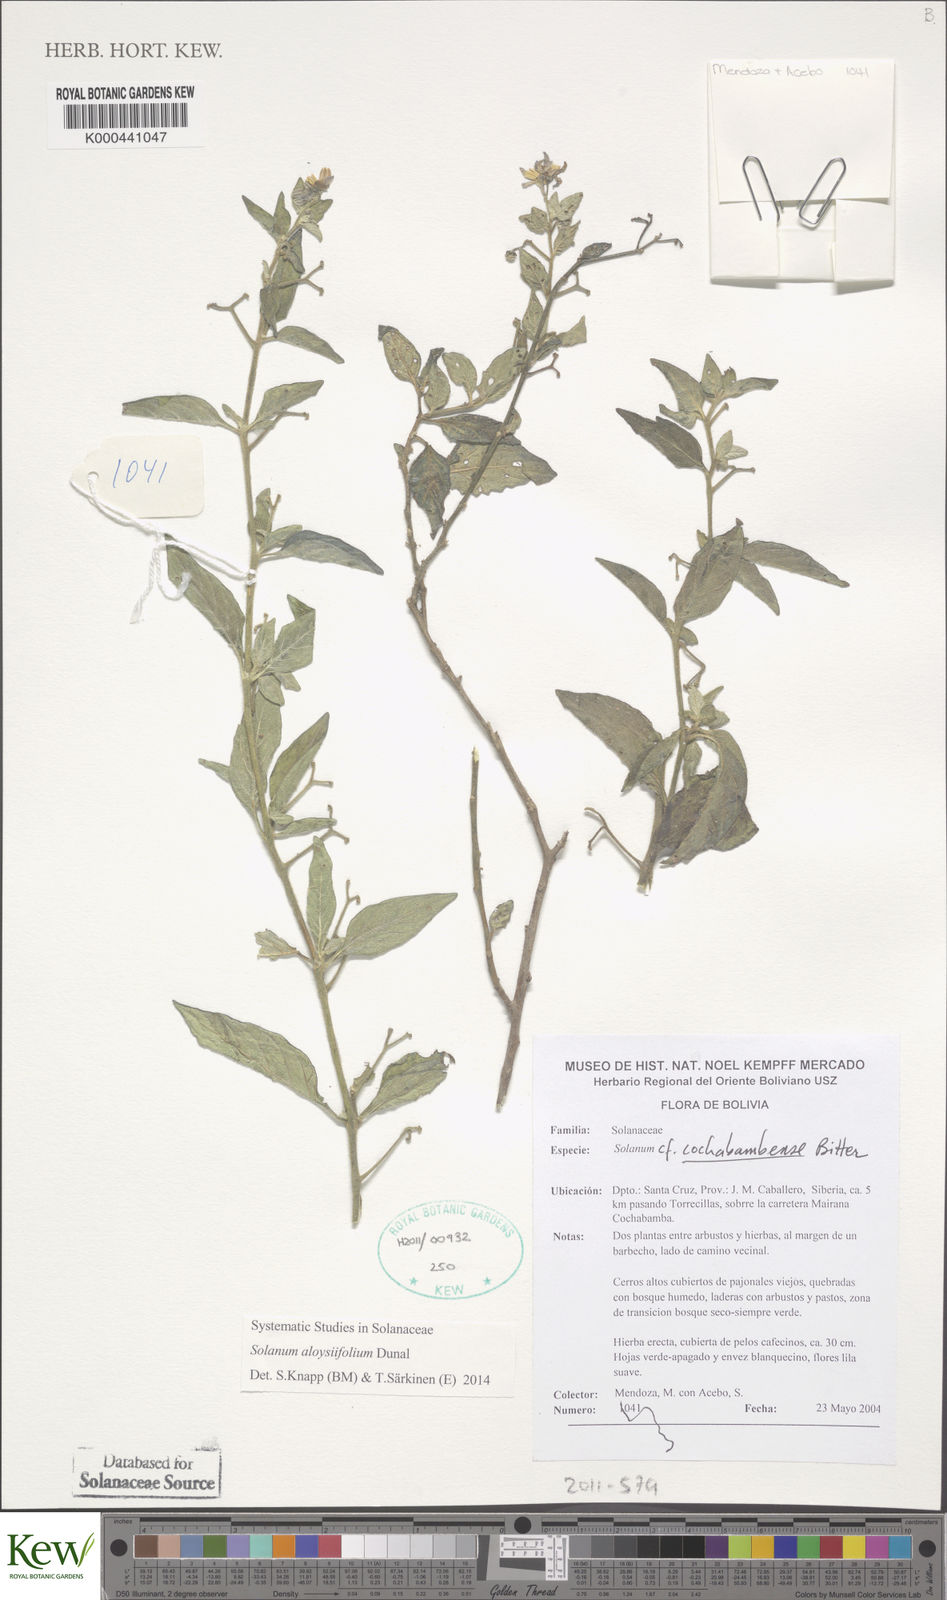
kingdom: Plantae
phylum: Tracheophyta
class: Magnoliopsida
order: Solanales
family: Solanaceae
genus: Solanum
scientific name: Solanum aloysiifolium
